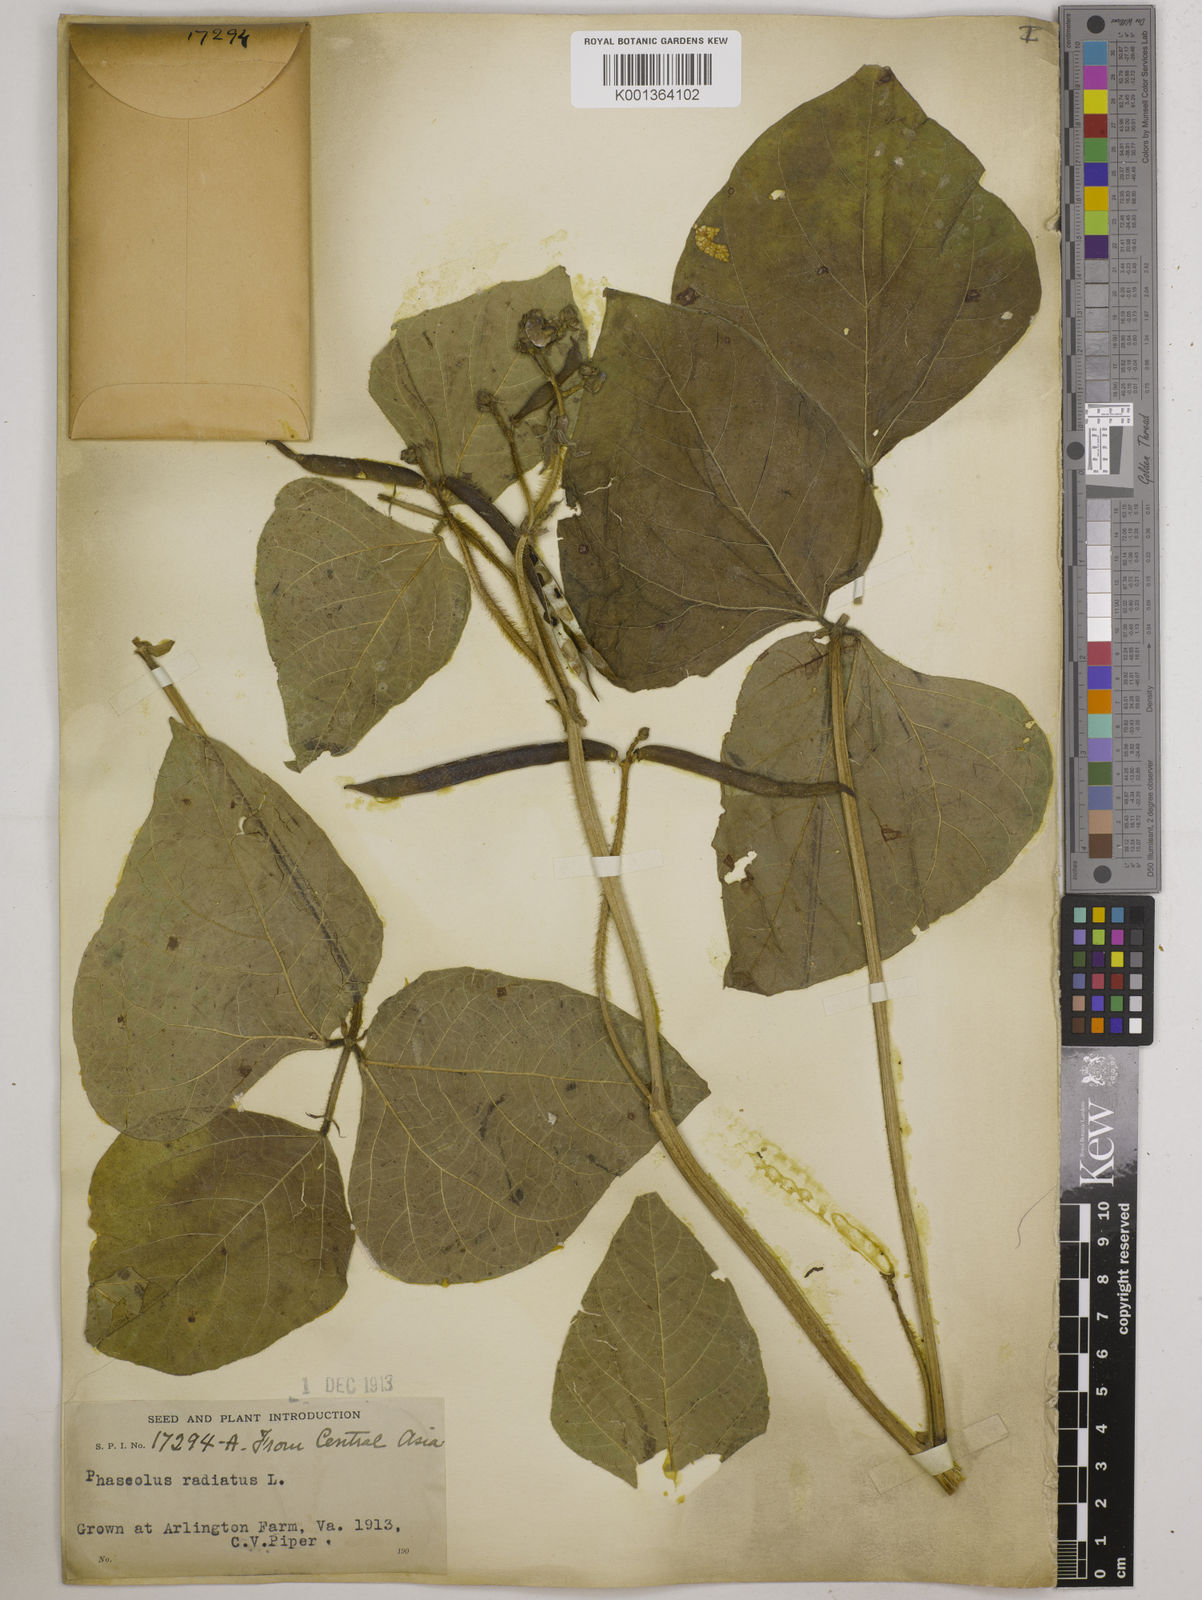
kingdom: Plantae
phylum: Tracheophyta
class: Magnoliopsida
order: Fabales
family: Fabaceae
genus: Vigna
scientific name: Vigna radiata
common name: Mung-bean
